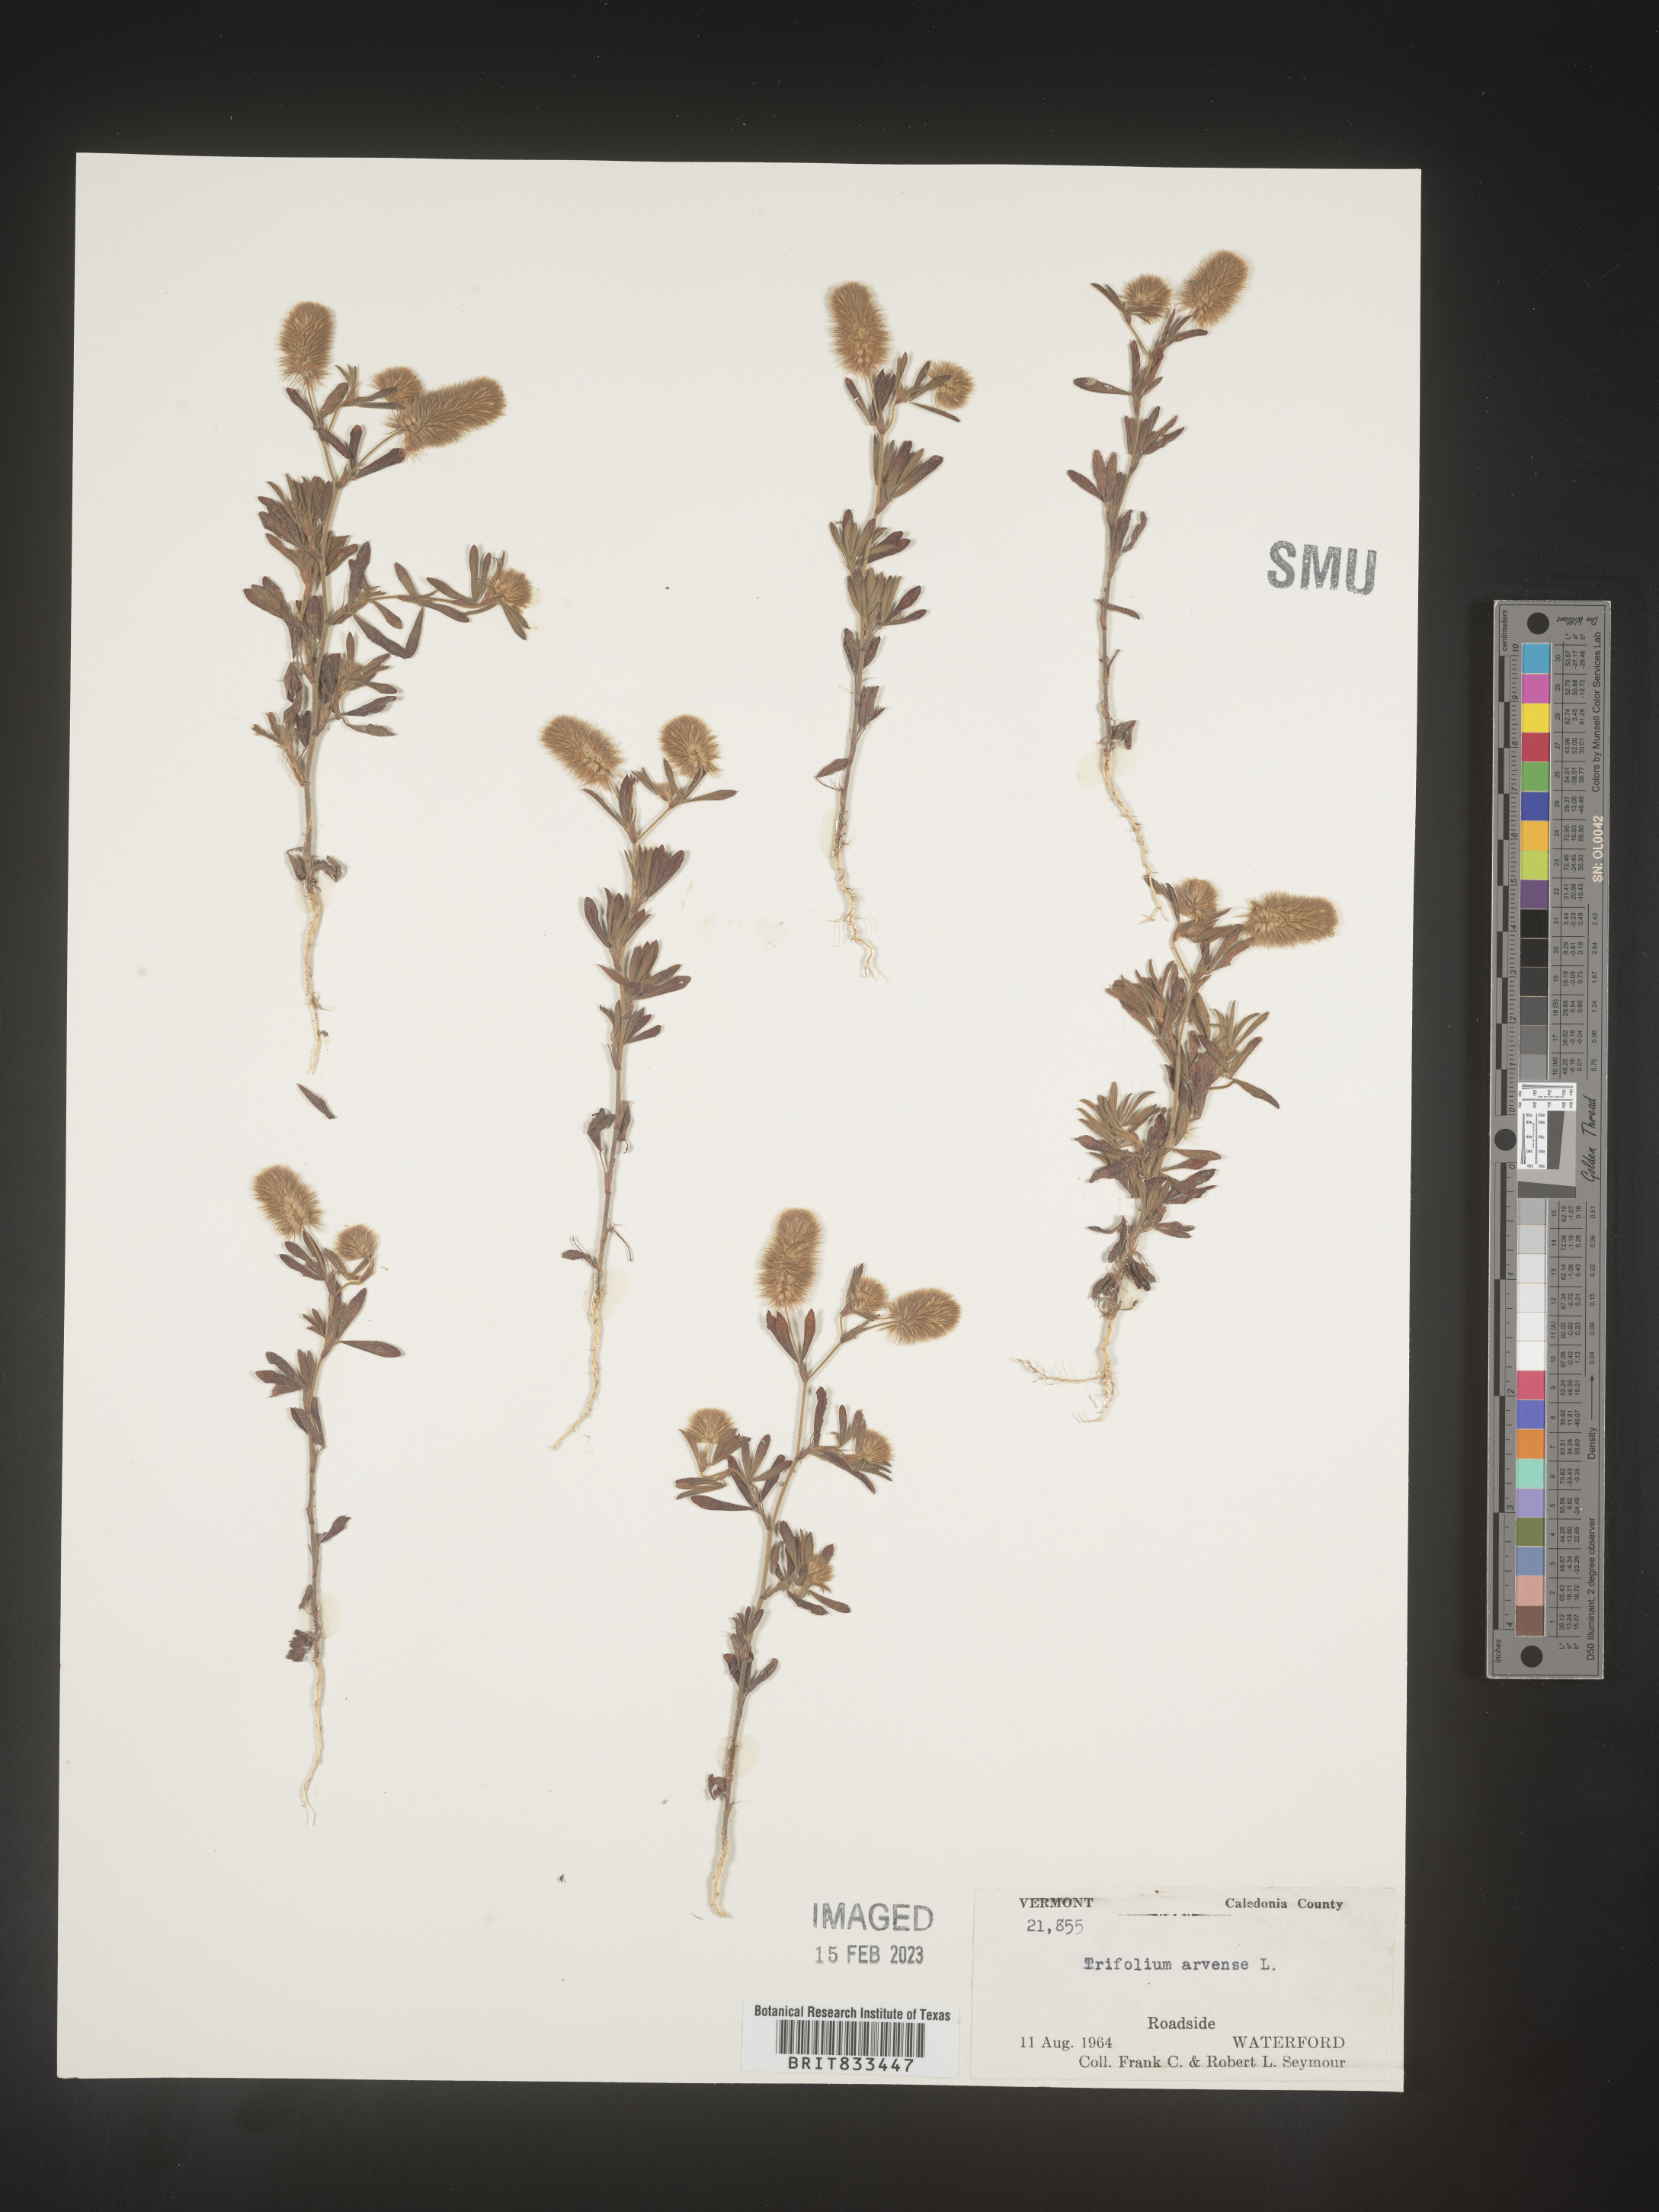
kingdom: Plantae
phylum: Tracheophyta
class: Magnoliopsida
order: Fabales
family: Fabaceae
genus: Trifolium
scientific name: Trifolium arvense
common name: Hare's-foot clover
